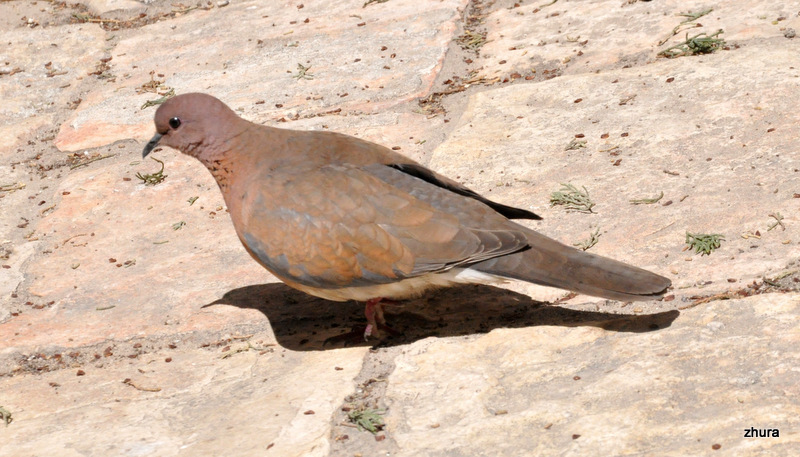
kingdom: Animalia
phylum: Chordata
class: Aves
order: Columbiformes
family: Columbidae
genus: Spilopelia
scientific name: Spilopelia senegalensis
